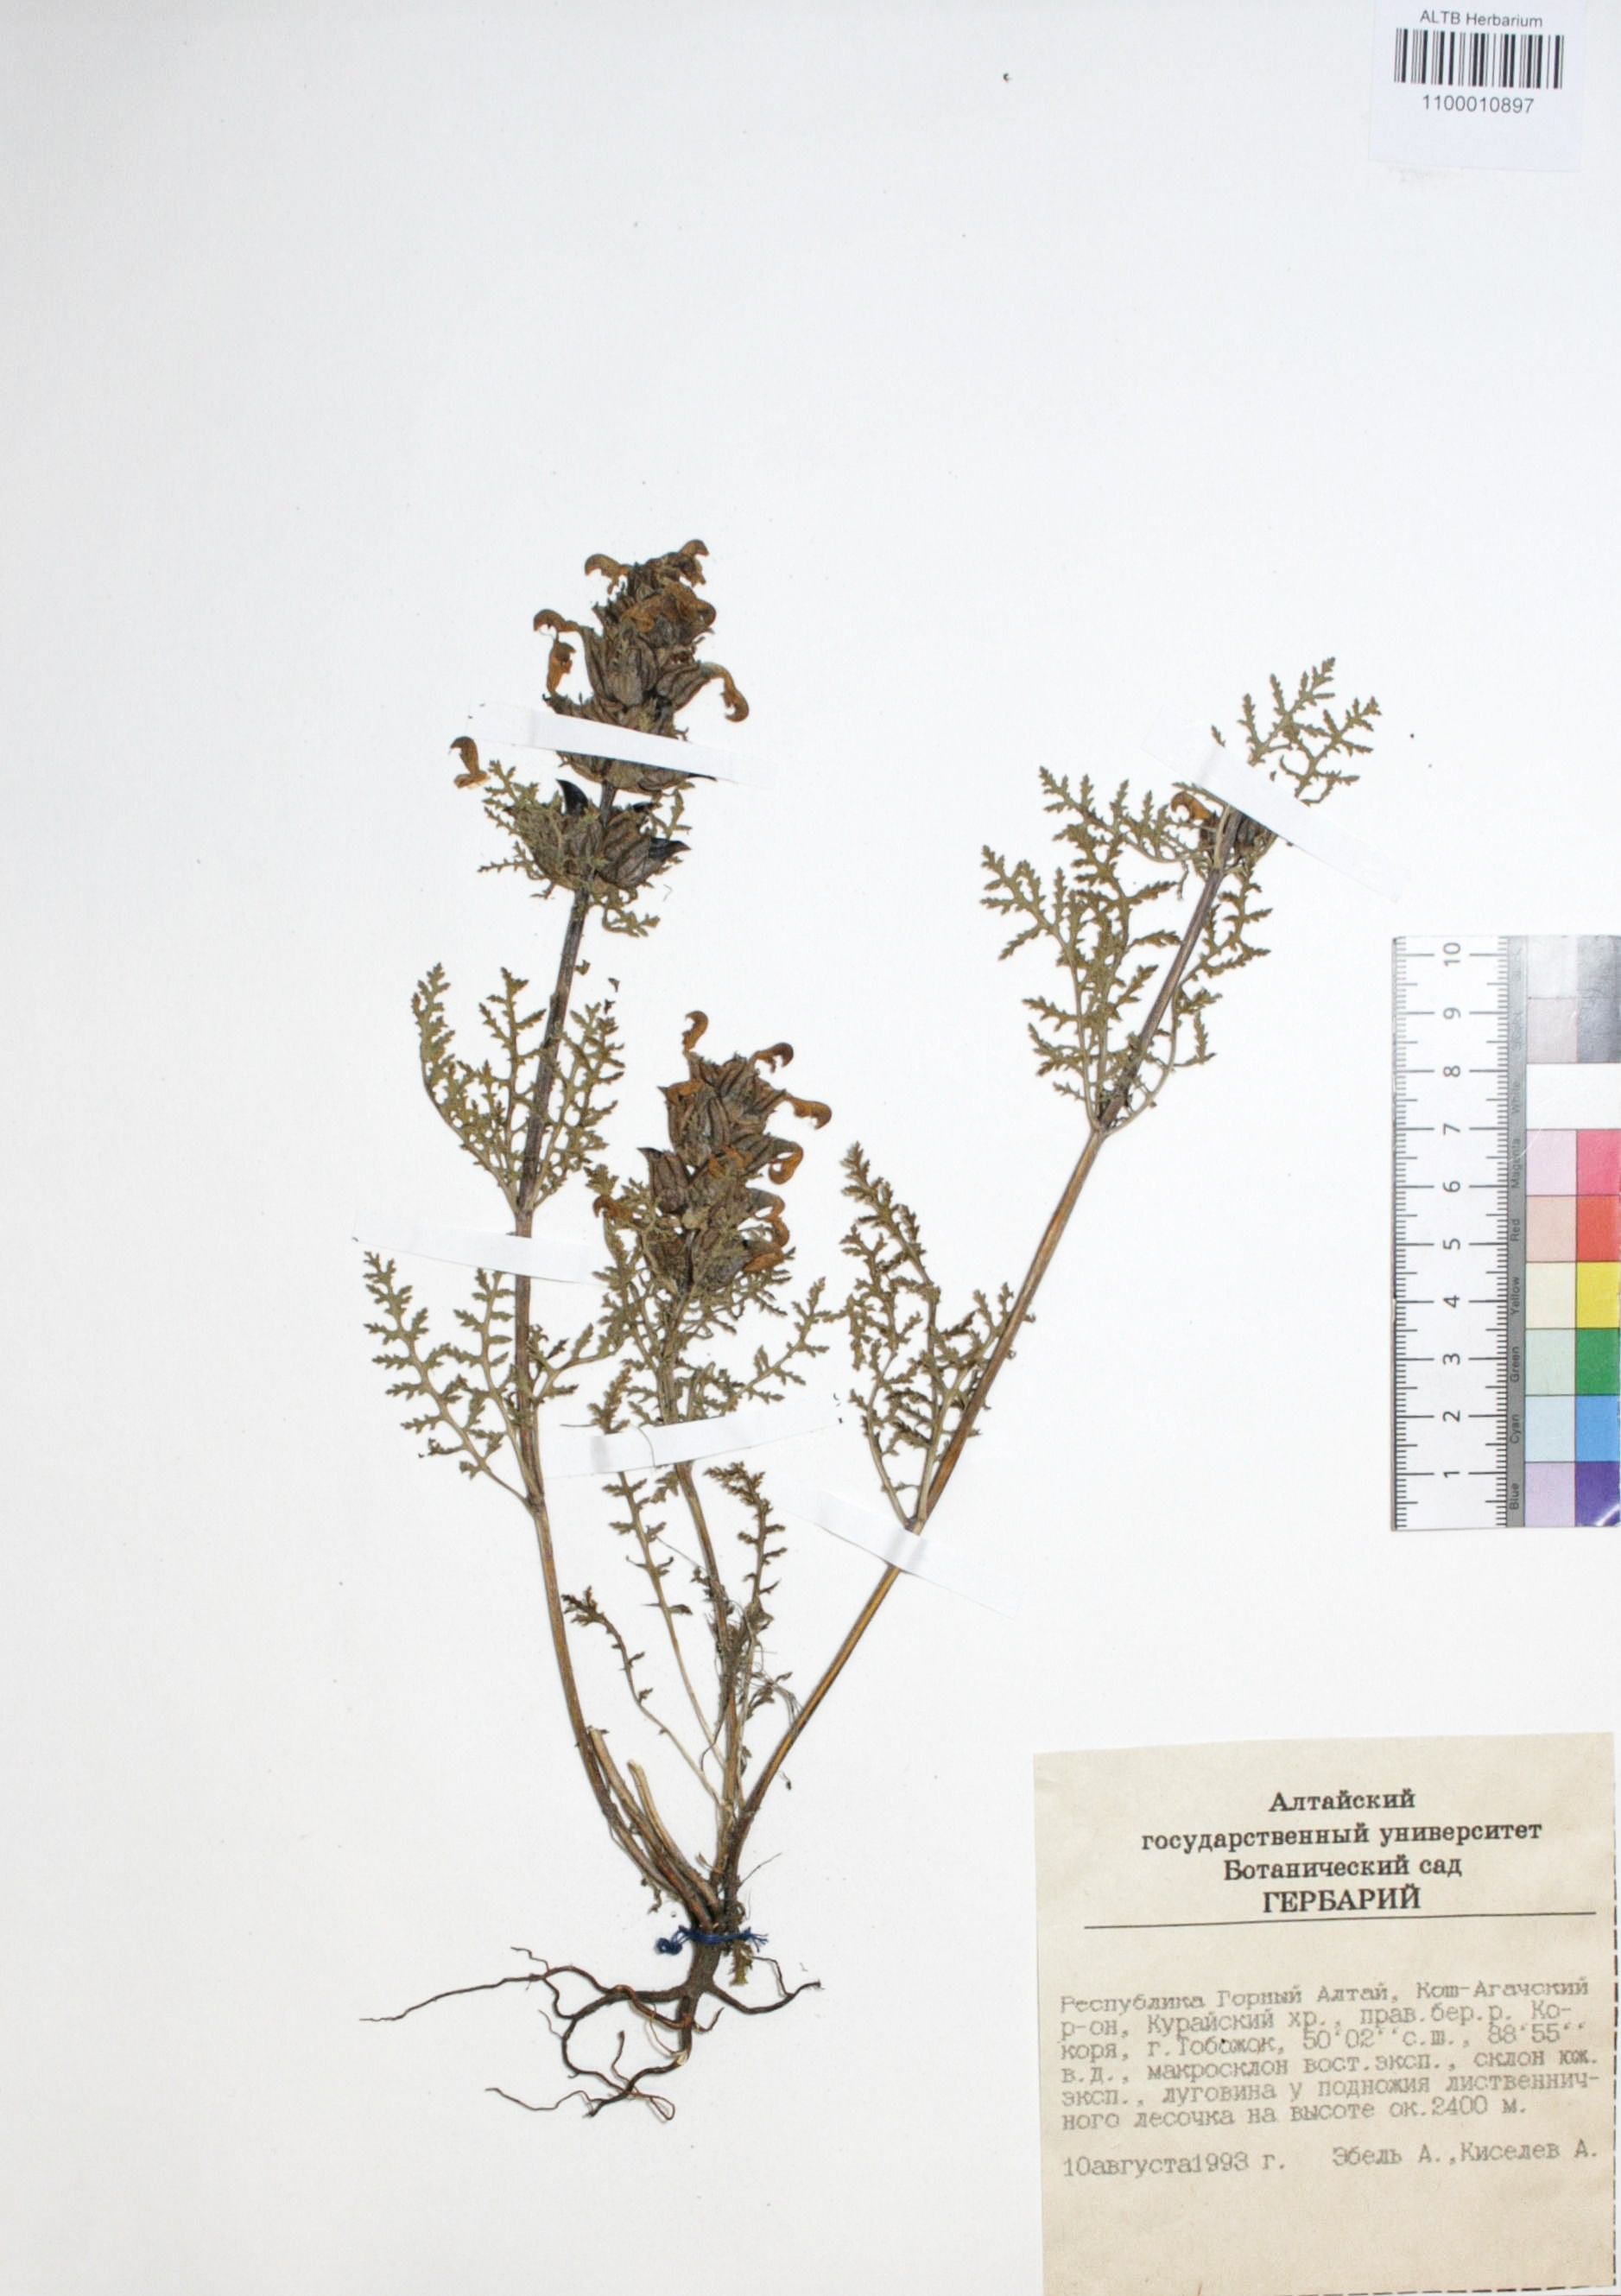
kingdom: Plantae
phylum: Tracheophyta
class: Magnoliopsida
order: Lamiales
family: Orobanchaceae
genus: Pedicularis
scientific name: Pedicularis myriophylla
